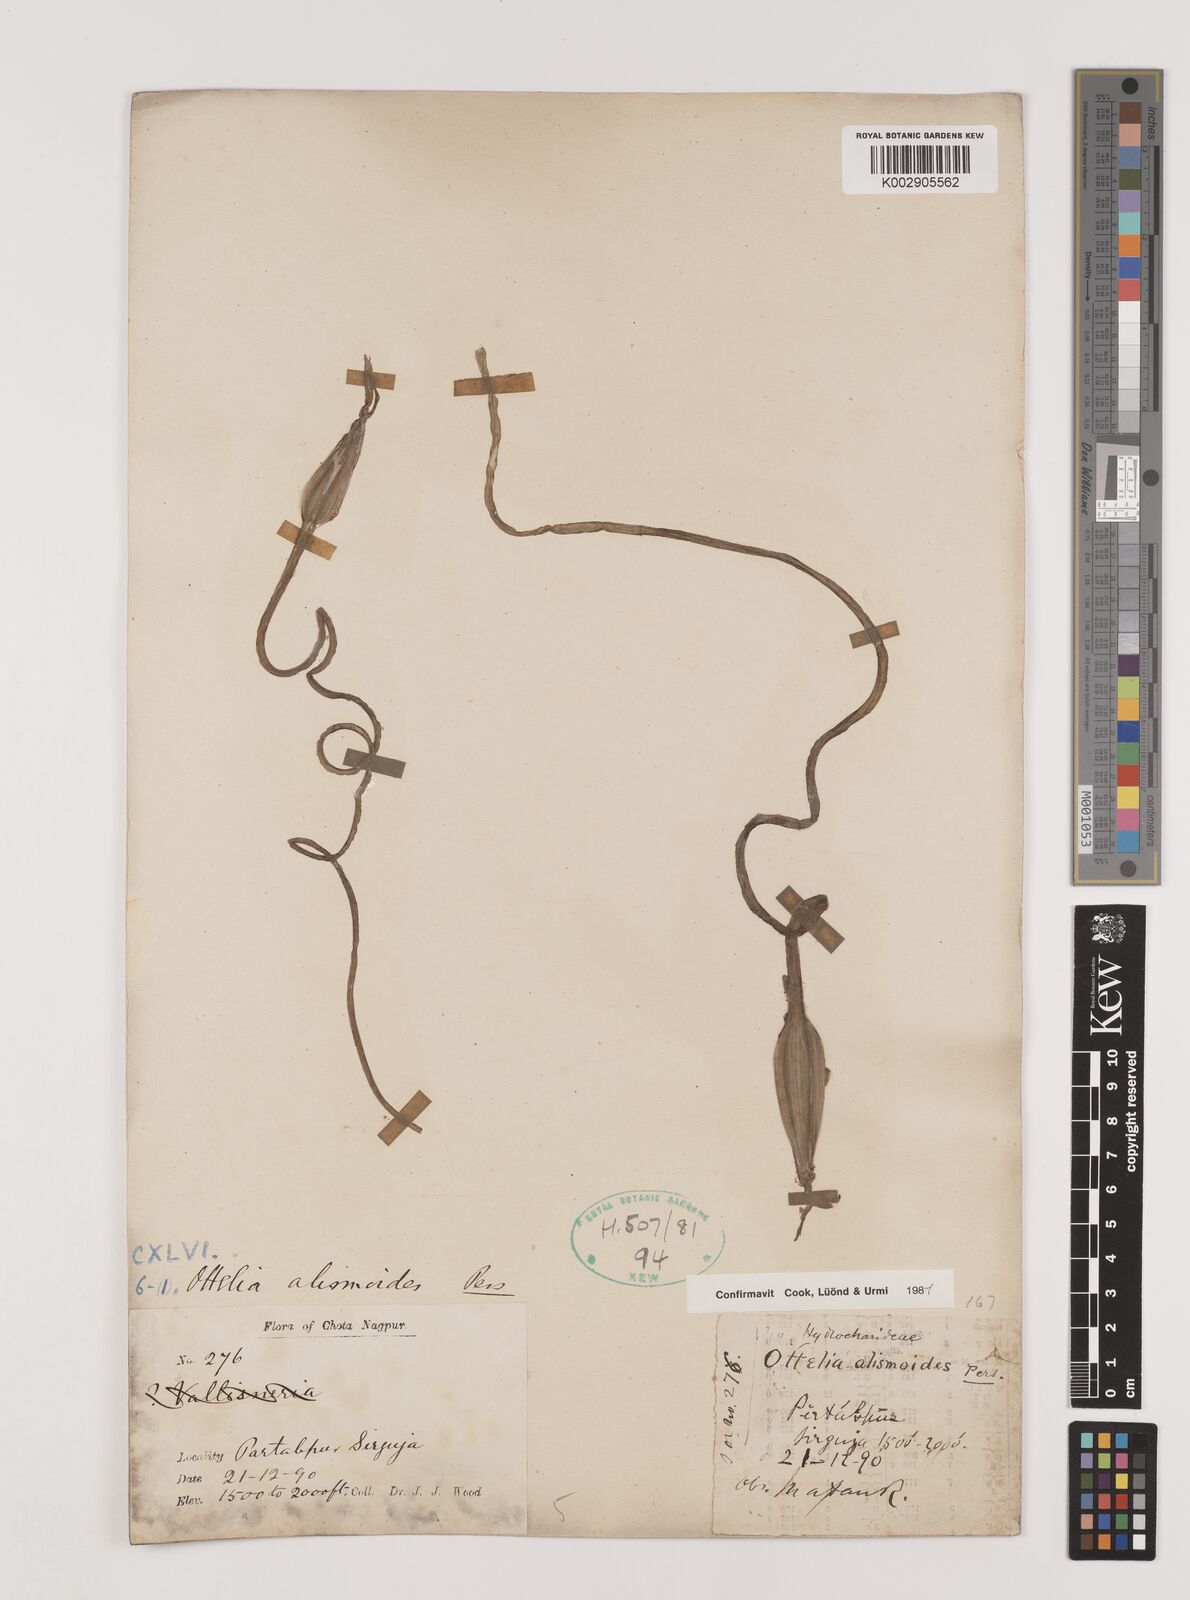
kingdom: Plantae
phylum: Tracheophyta
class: Liliopsida
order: Alismatales
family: Hydrocharitaceae
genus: Ottelia
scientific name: Ottelia alismoides
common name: Duck-lettuce
